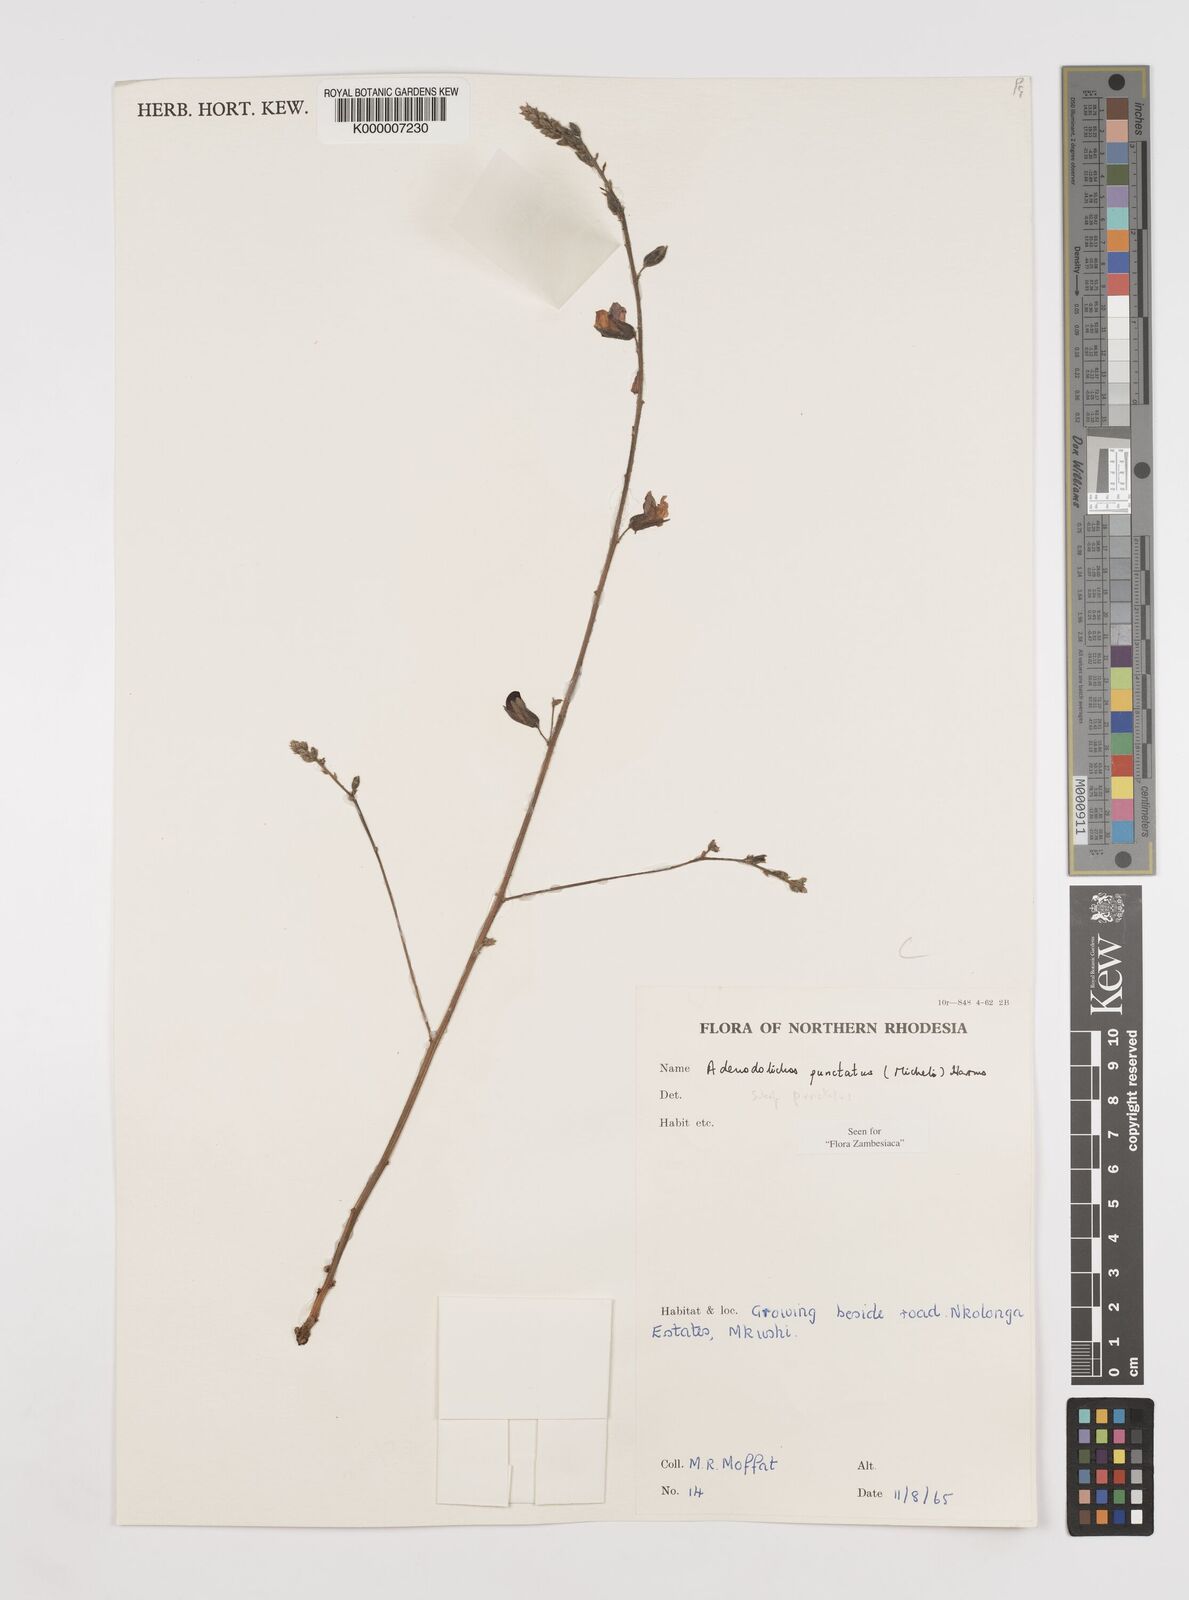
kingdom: Plantae
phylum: Tracheophyta
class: Magnoliopsida
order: Fabales
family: Fabaceae
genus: Adenodolichos
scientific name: Adenodolichos punctatus
